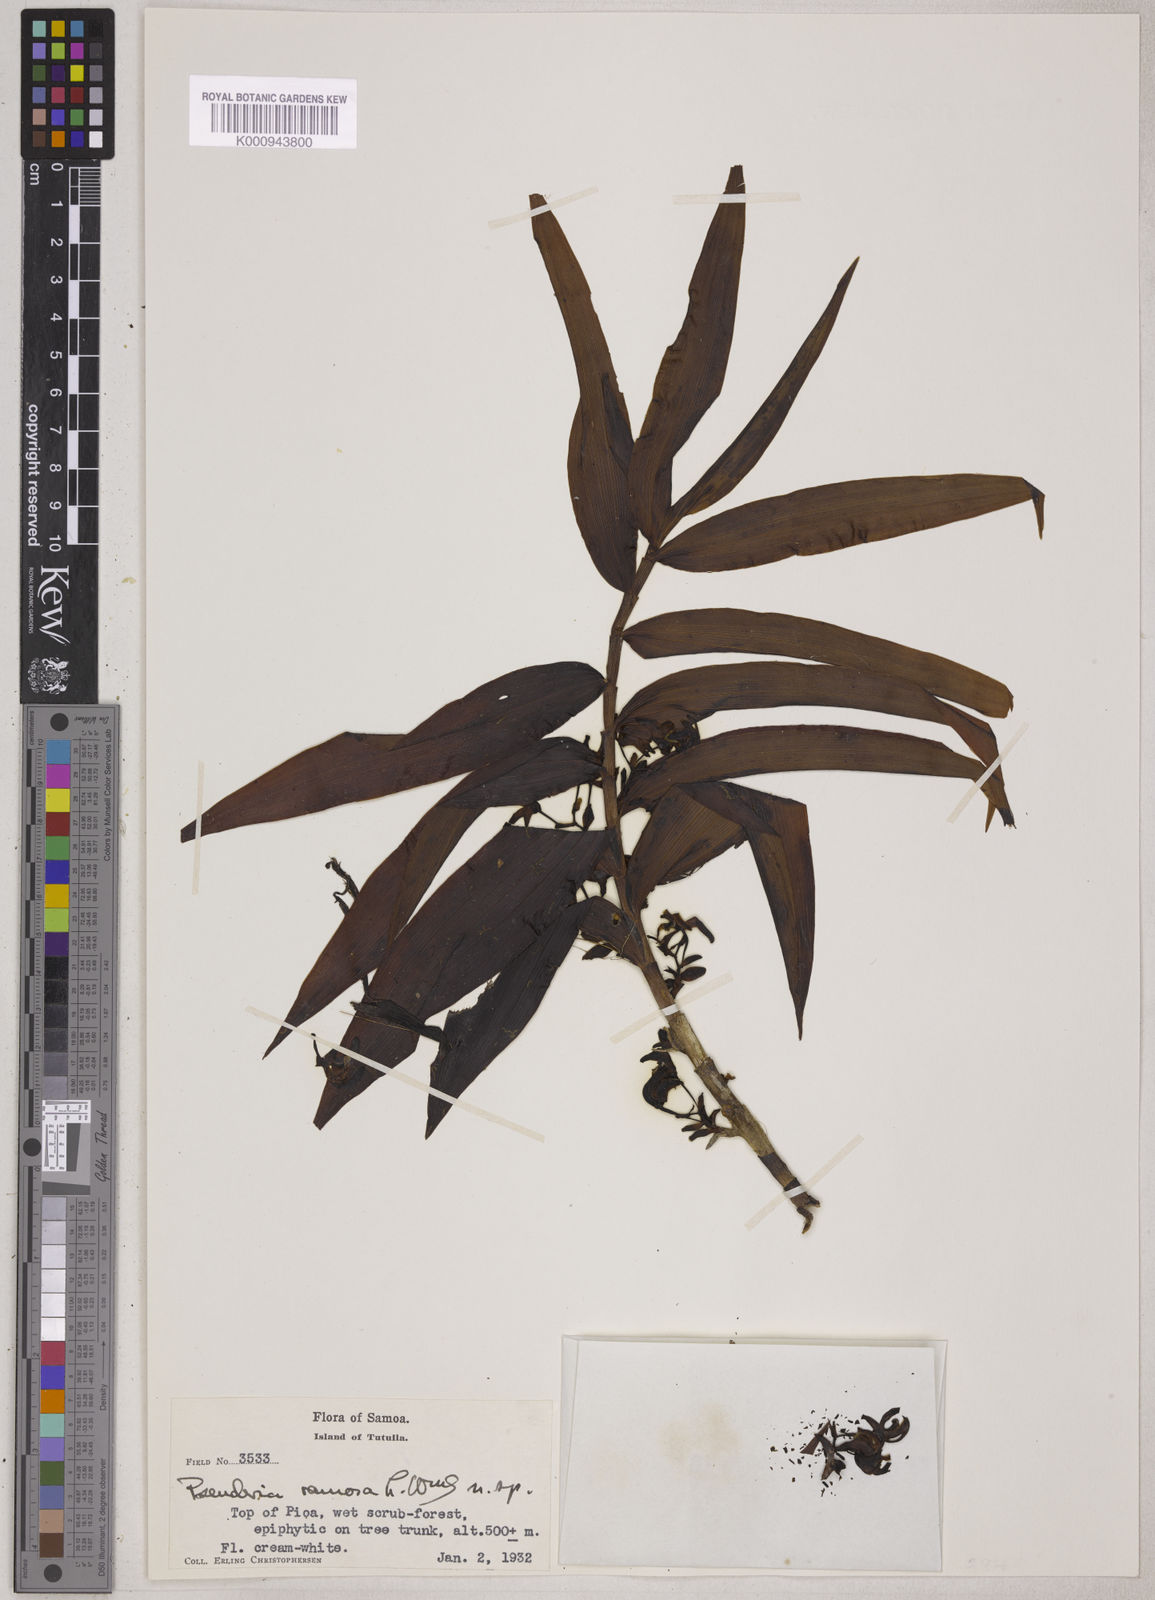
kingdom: Plantae
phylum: Tracheophyta
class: Liliopsida
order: Asparagales
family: Orchidaceae
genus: Pseuderia
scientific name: Pseuderia ramosa
